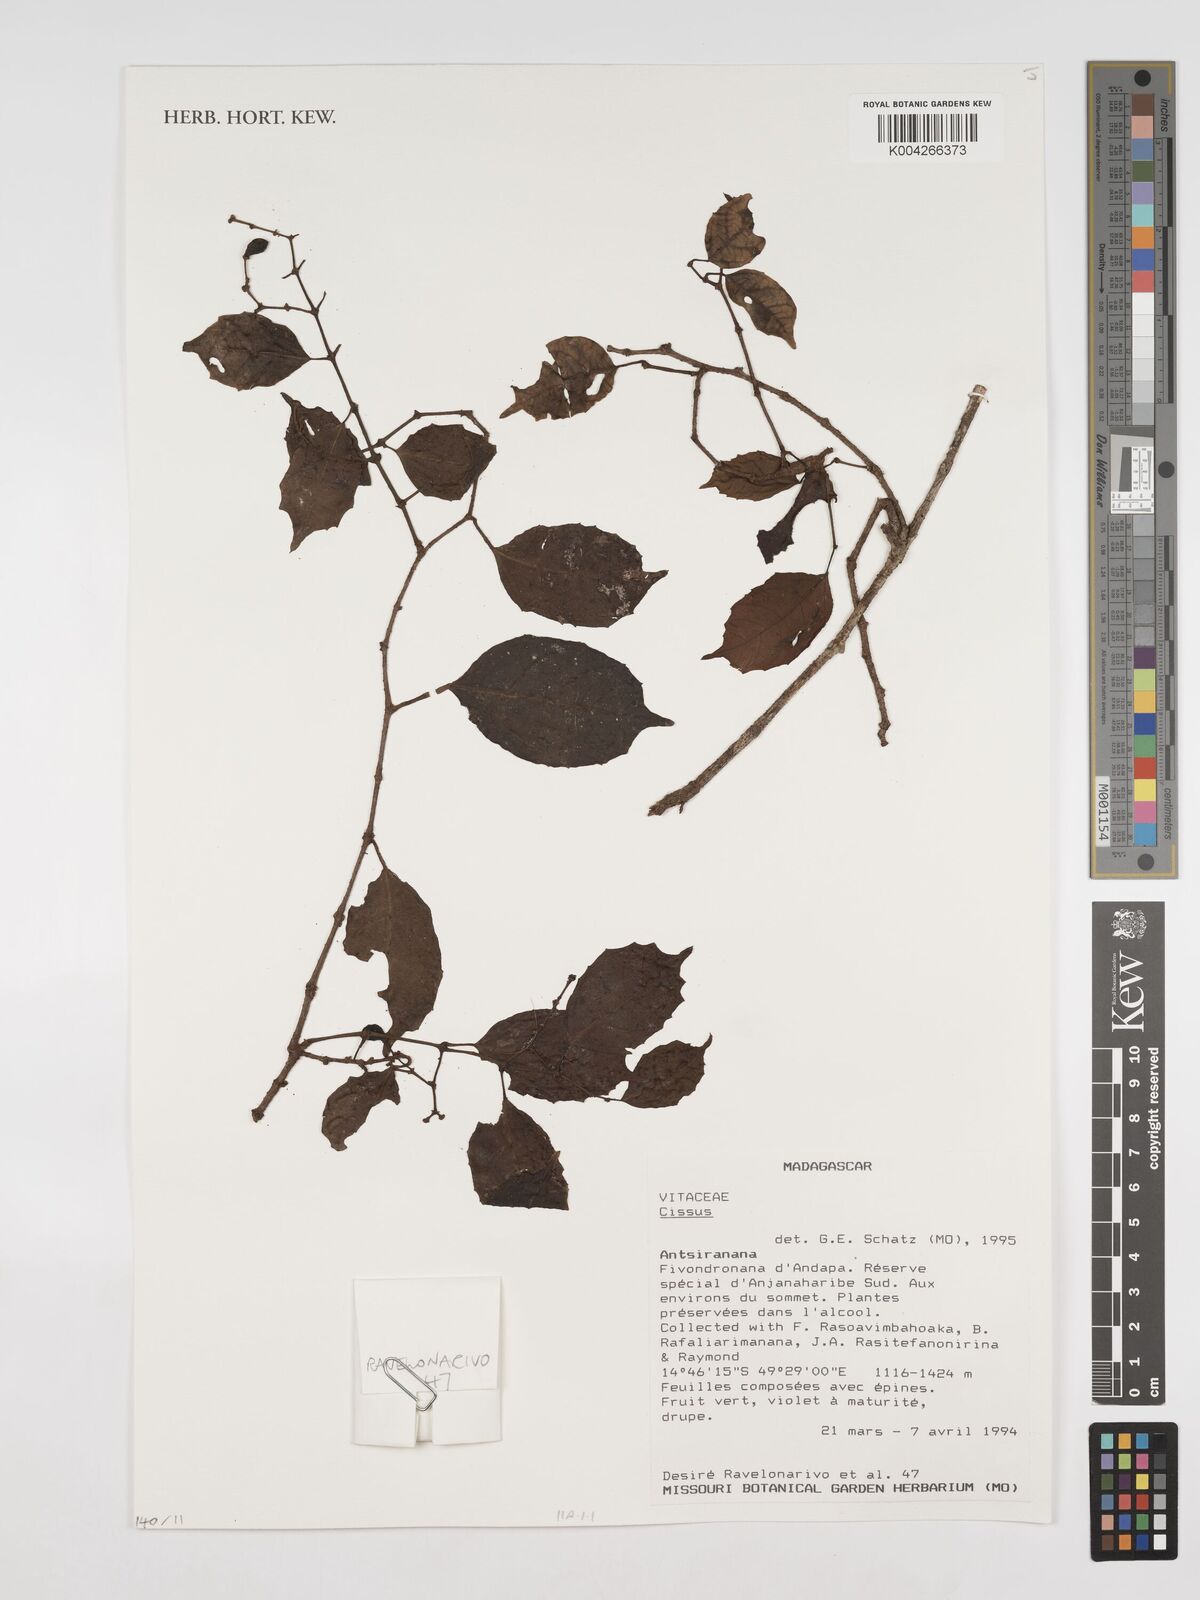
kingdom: Plantae
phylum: Tracheophyta
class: Magnoliopsida
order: Vitales
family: Vitaceae
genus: Cissus
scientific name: Cissus
